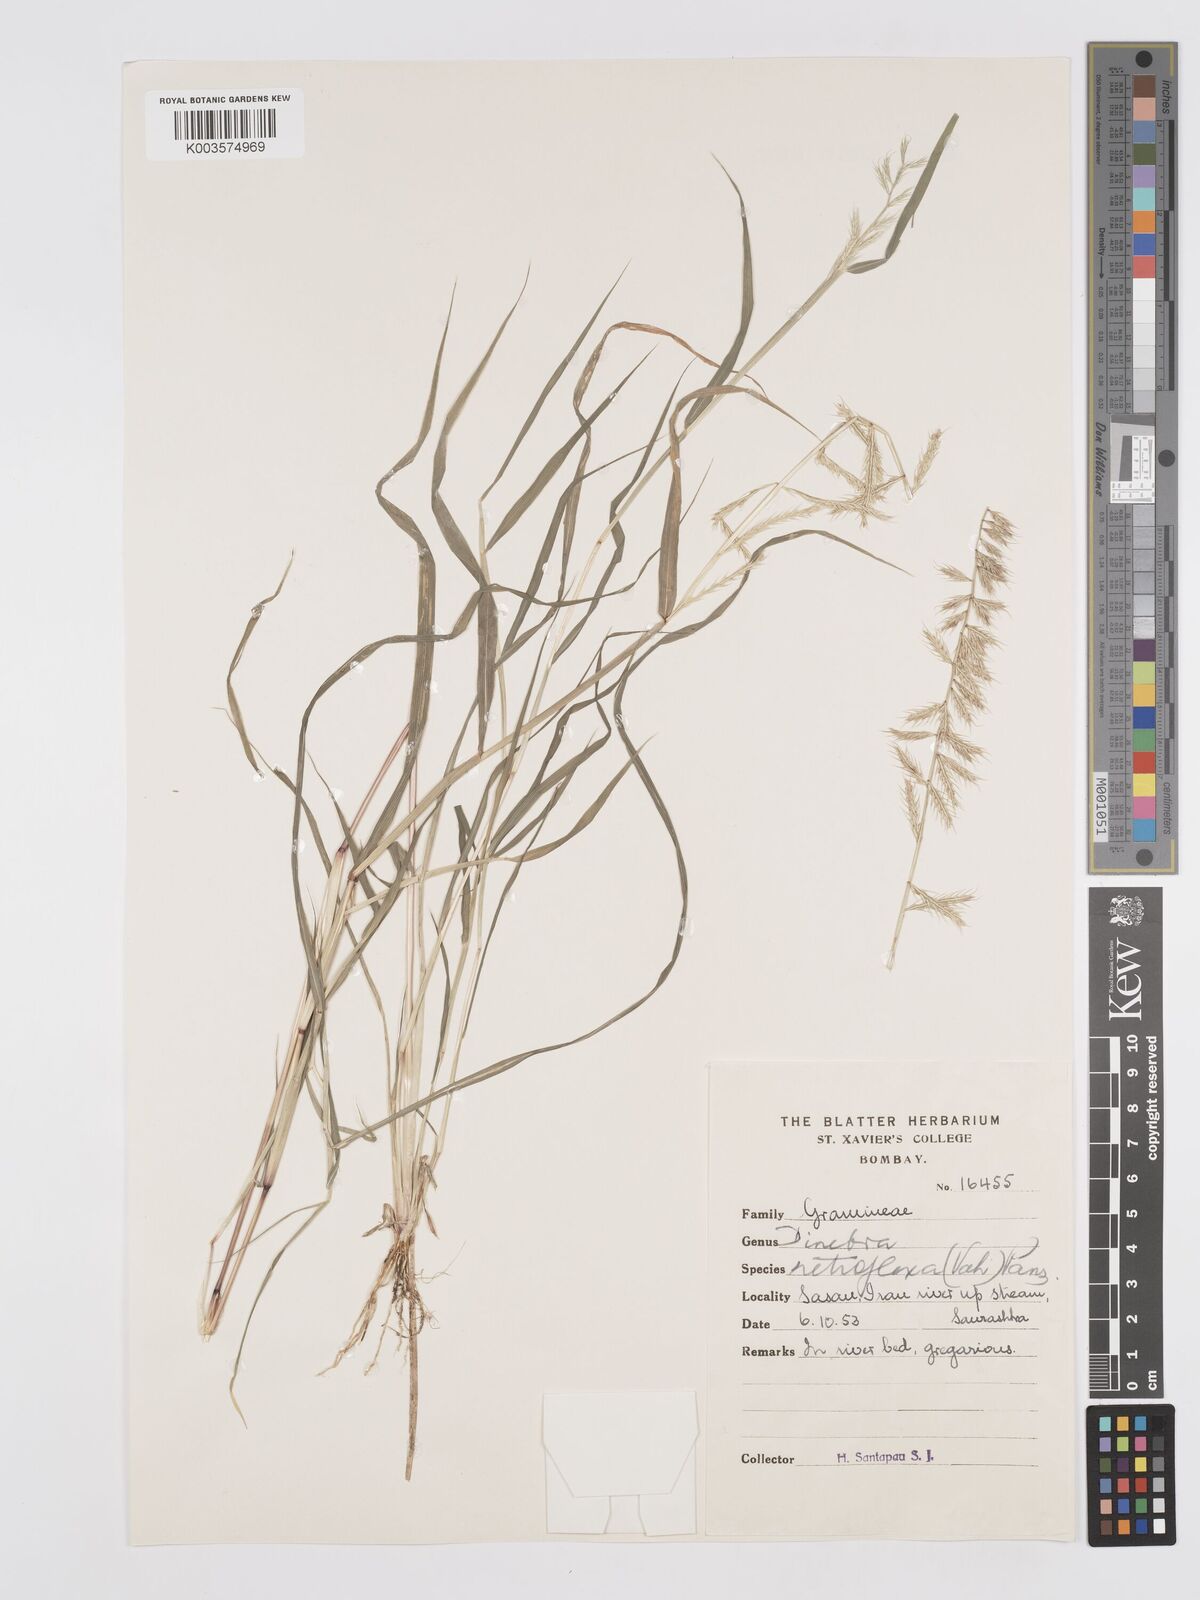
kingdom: Plantae
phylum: Tracheophyta
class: Liliopsida
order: Poales
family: Poaceae
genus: Dinebra
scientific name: Dinebra retroflexa
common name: Viper grass
